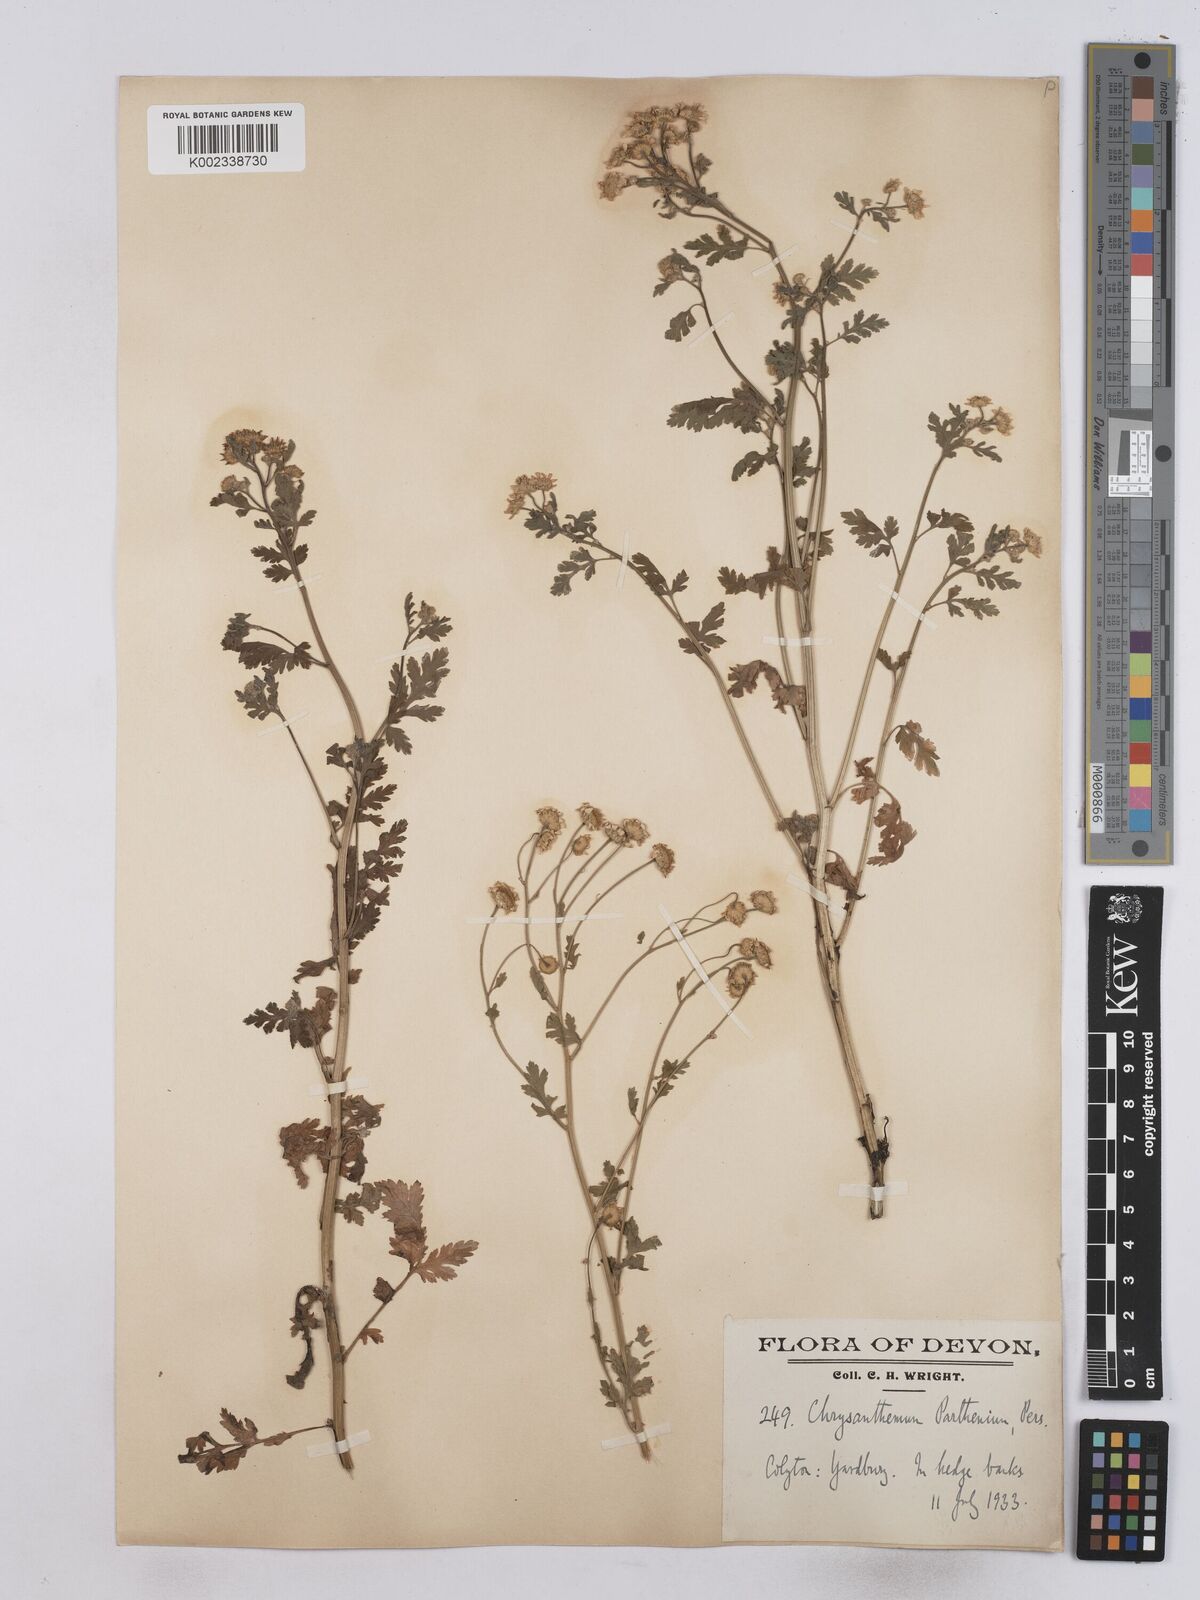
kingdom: Plantae
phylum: Tracheophyta
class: Magnoliopsida
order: Asterales
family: Asteraceae
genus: Tanacetum
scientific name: Tanacetum parthenium
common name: Feverfew
